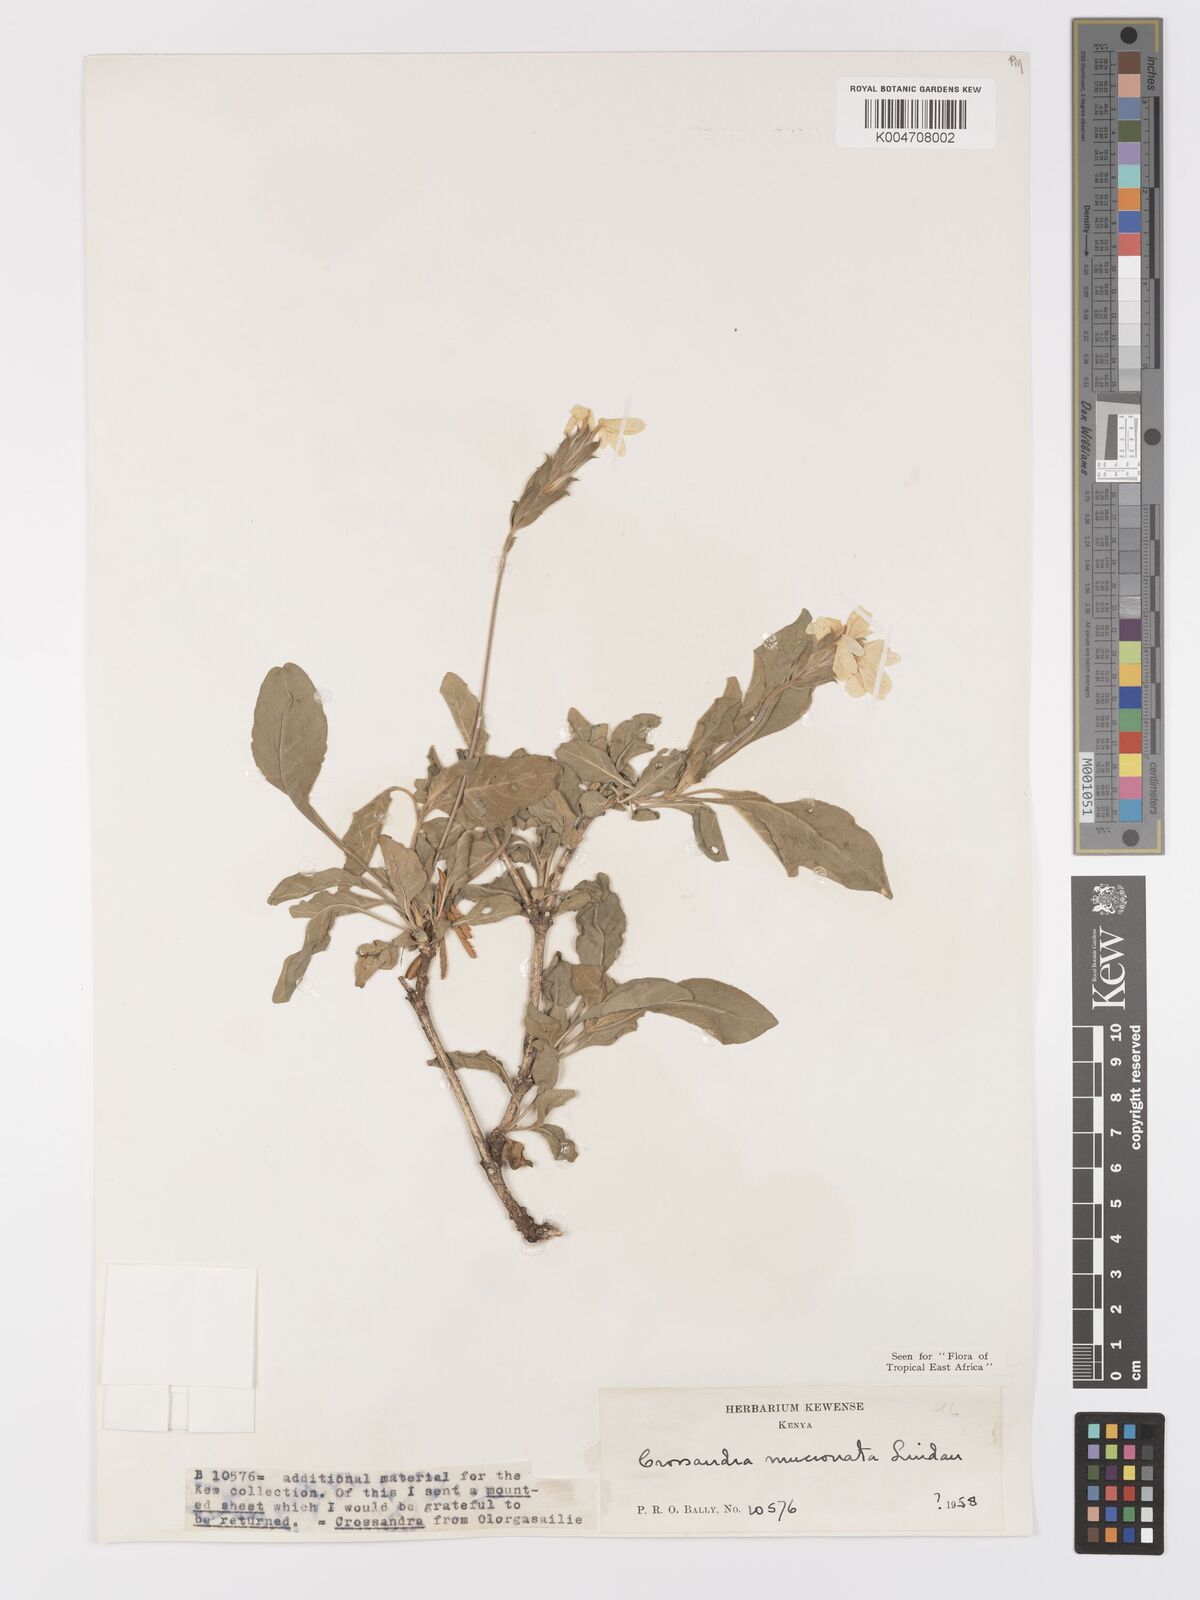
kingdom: Plantae
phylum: Tracheophyta
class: Magnoliopsida
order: Lamiales
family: Acanthaceae
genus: Crossandra
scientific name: Crossandra mucronata
